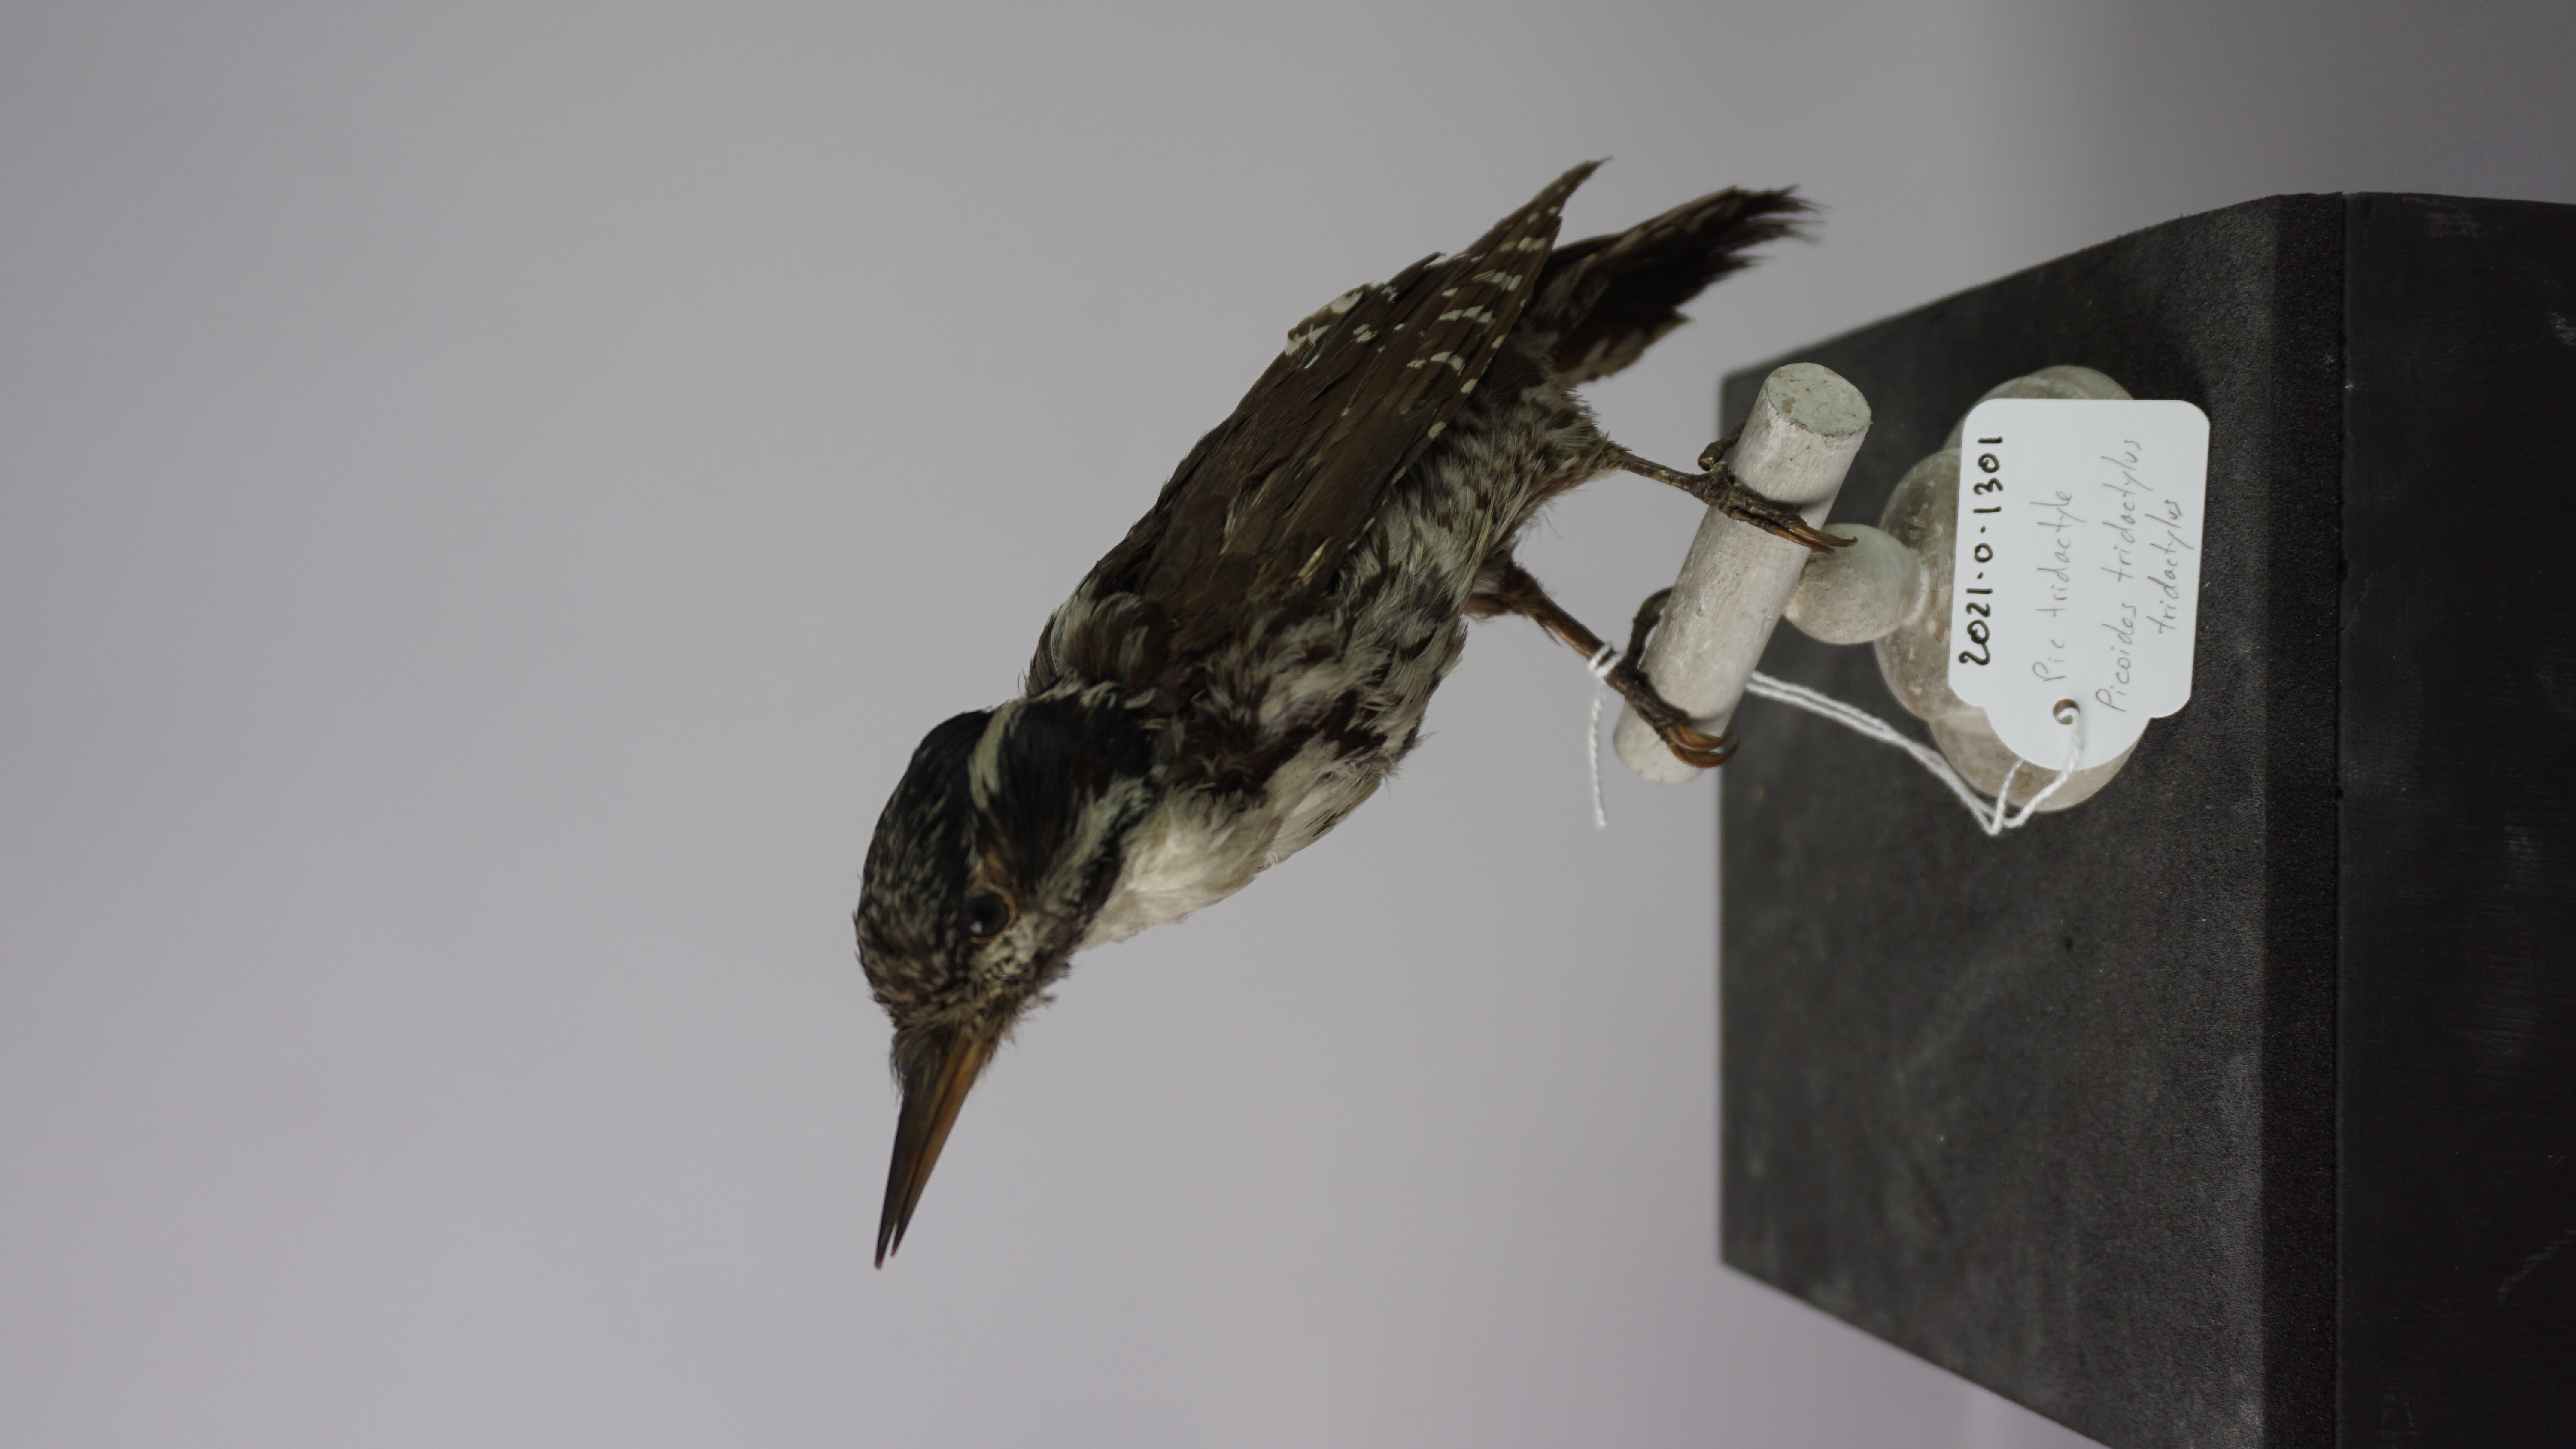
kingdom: Animalia
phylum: Chordata
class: Aves
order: Piciformes
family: Picidae
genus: Picoides
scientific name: Picoides tridactylus
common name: Eurasian three-toed woodpecker
